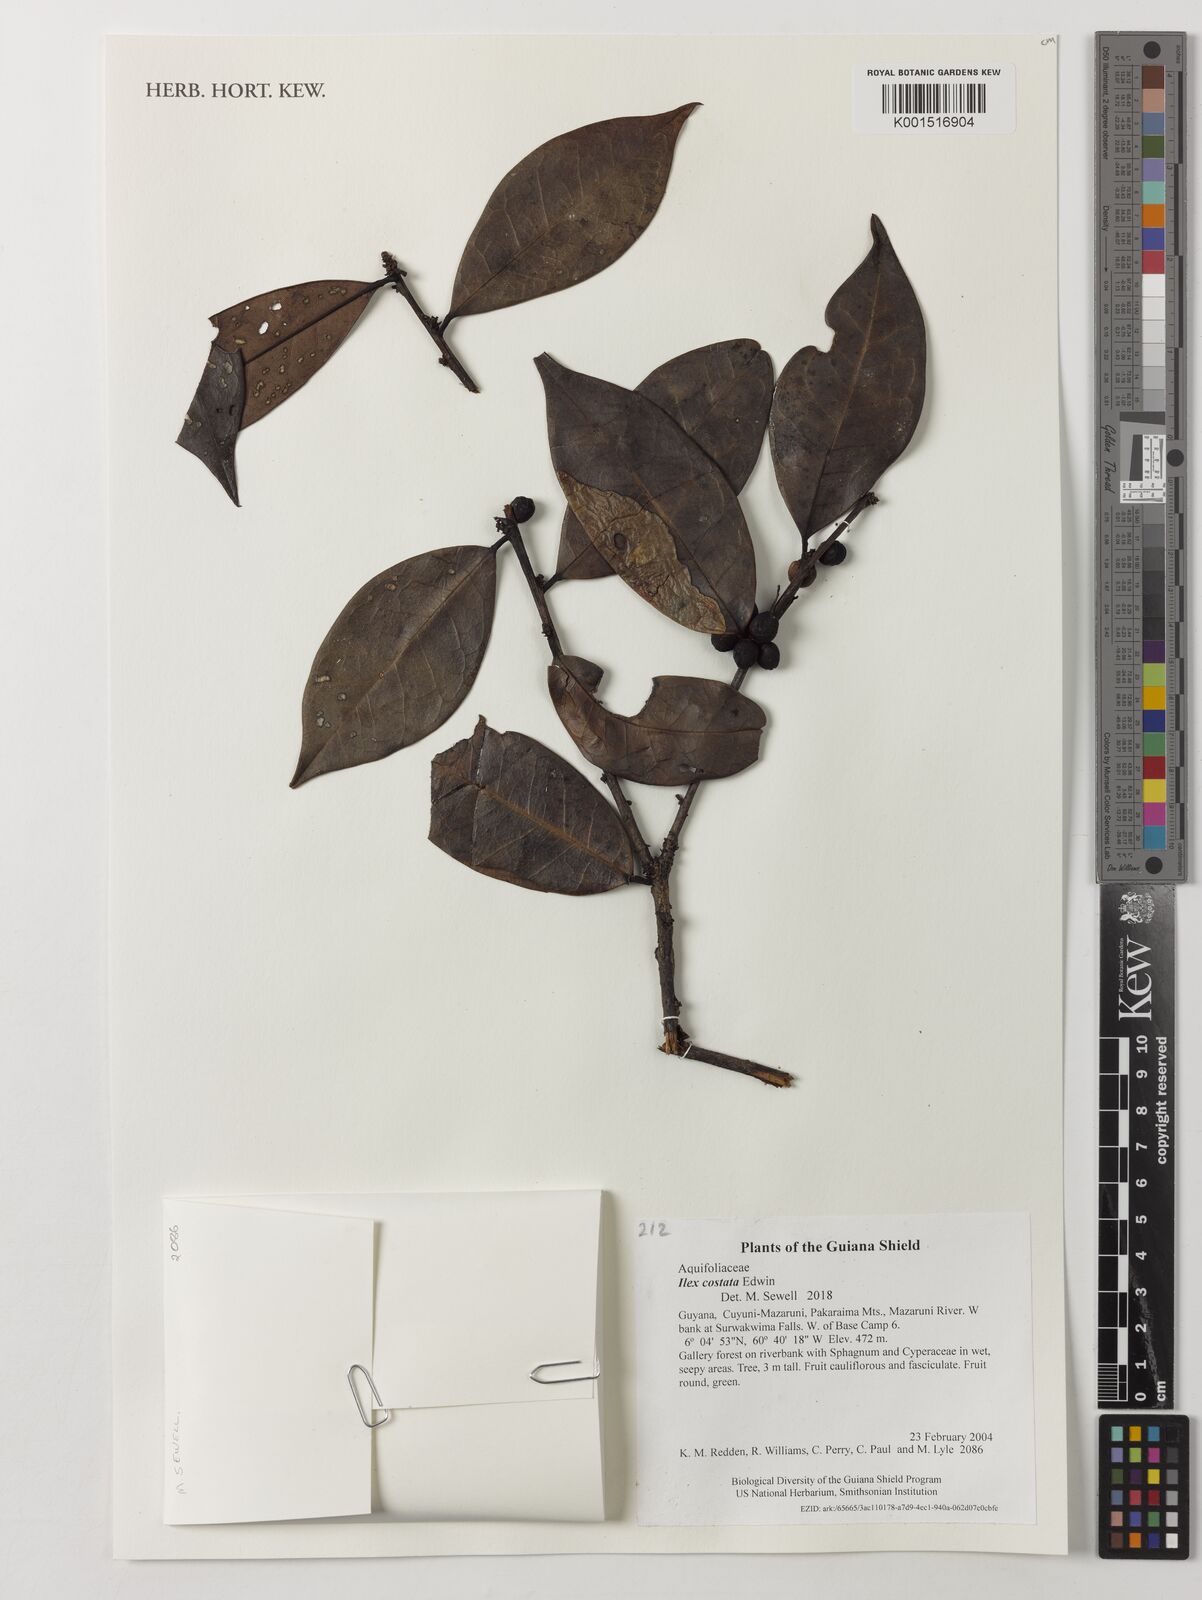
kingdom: Plantae
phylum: Tracheophyta
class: Magnoliopsida
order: Aquifoliales
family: Aquifoliaceae
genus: Ilex
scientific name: Ilex costata
